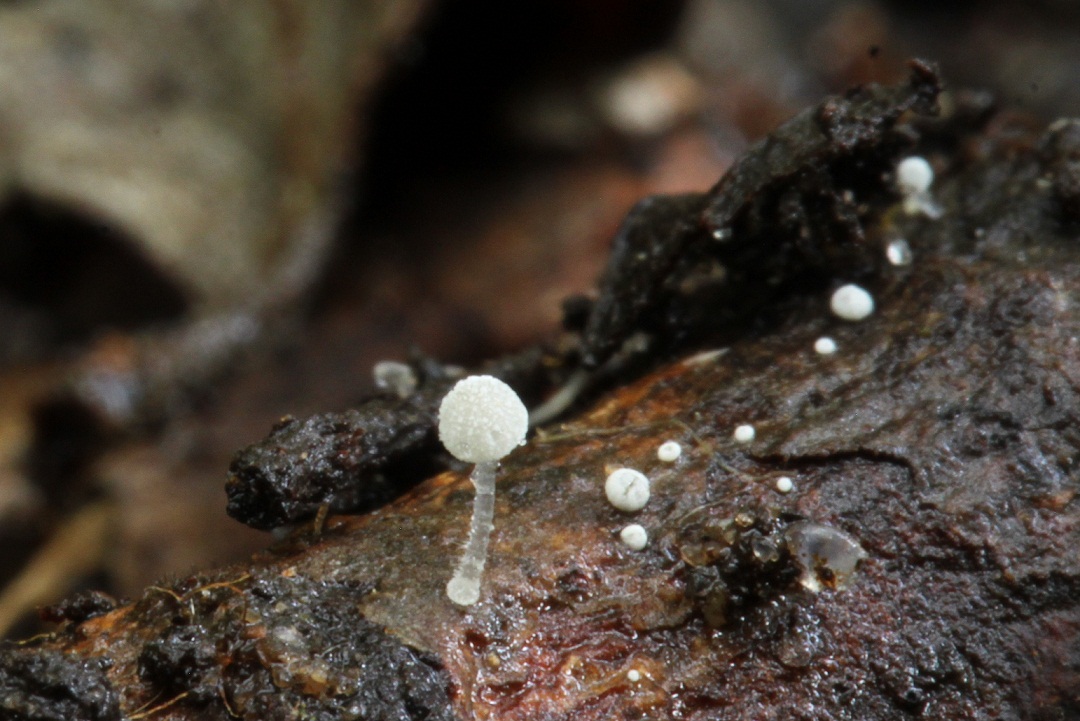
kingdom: Fungi
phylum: Basidiomycota
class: Agaricomycetes
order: Agaricales
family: Mycenaceae
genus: Mycena
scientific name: Mycena tenerrima
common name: pudret huesvamp
